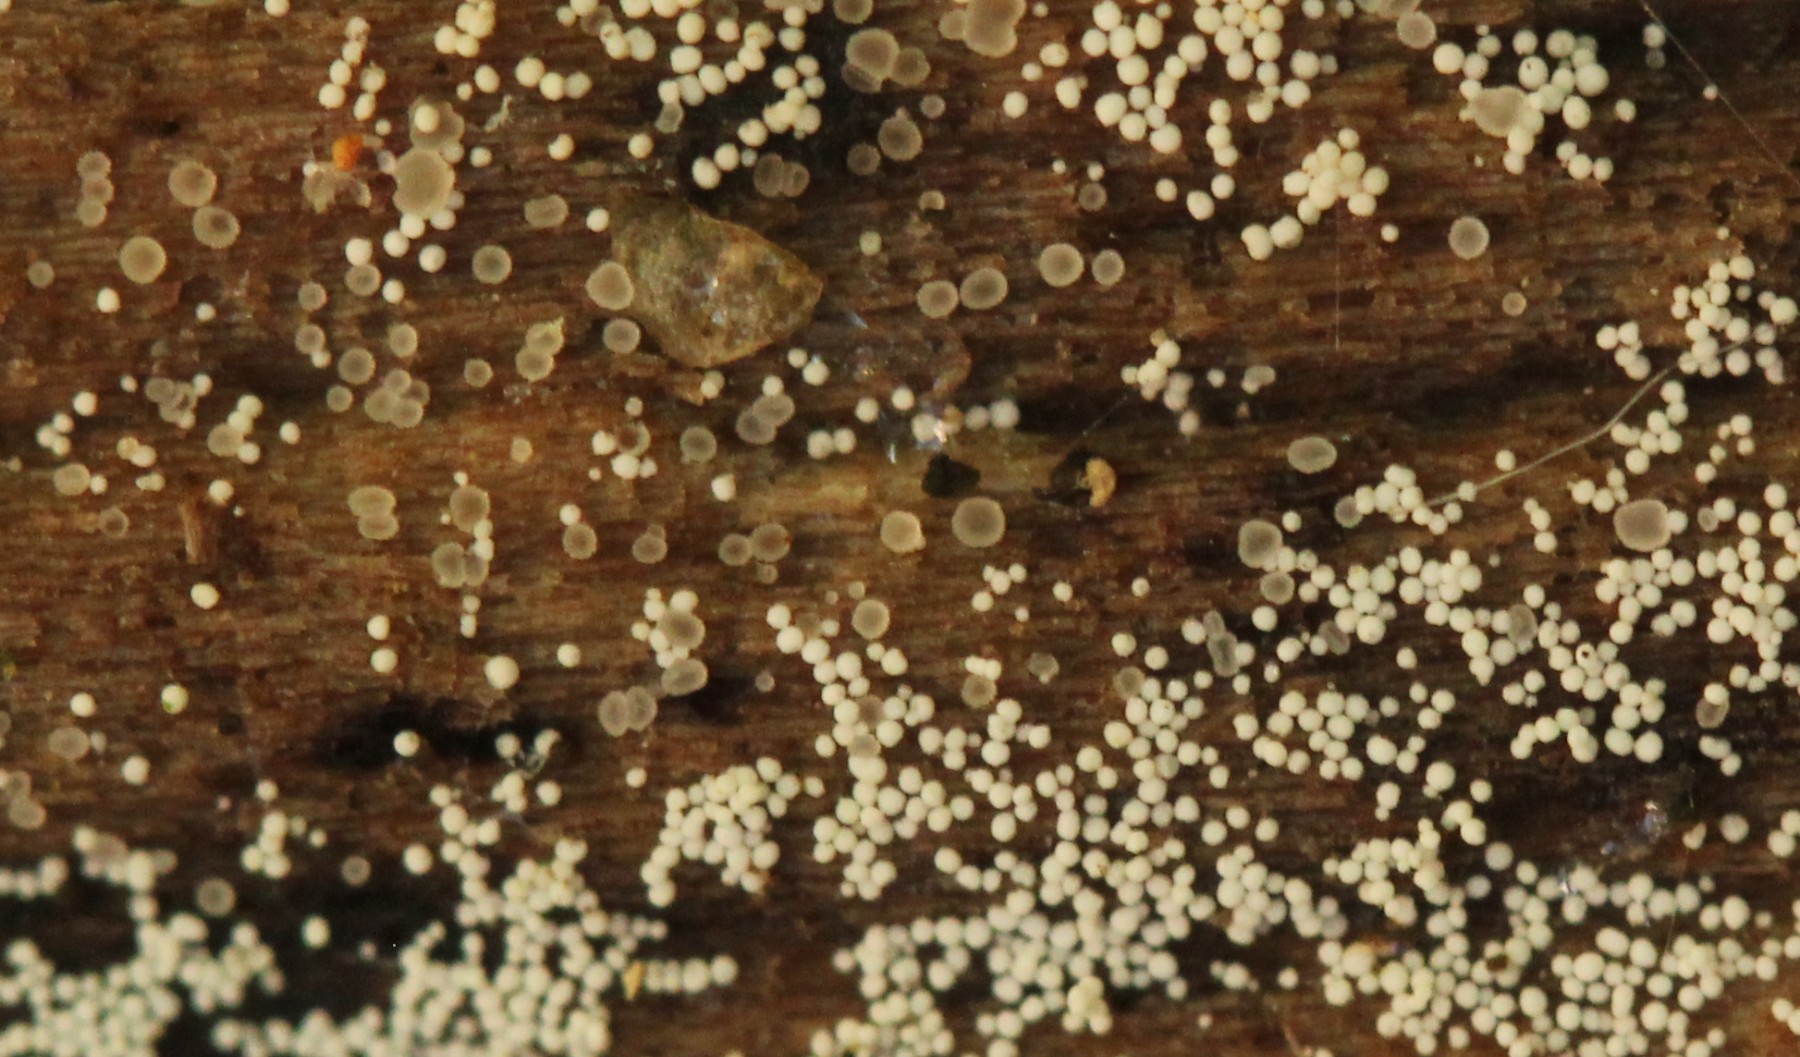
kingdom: Fungi
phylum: Basidiomycota
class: Agaricomycetes
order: Polyporales
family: Meruliaceae
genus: Bulbillomyces
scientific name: Bulbillomyces farinosus
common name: æg-kalkskind
